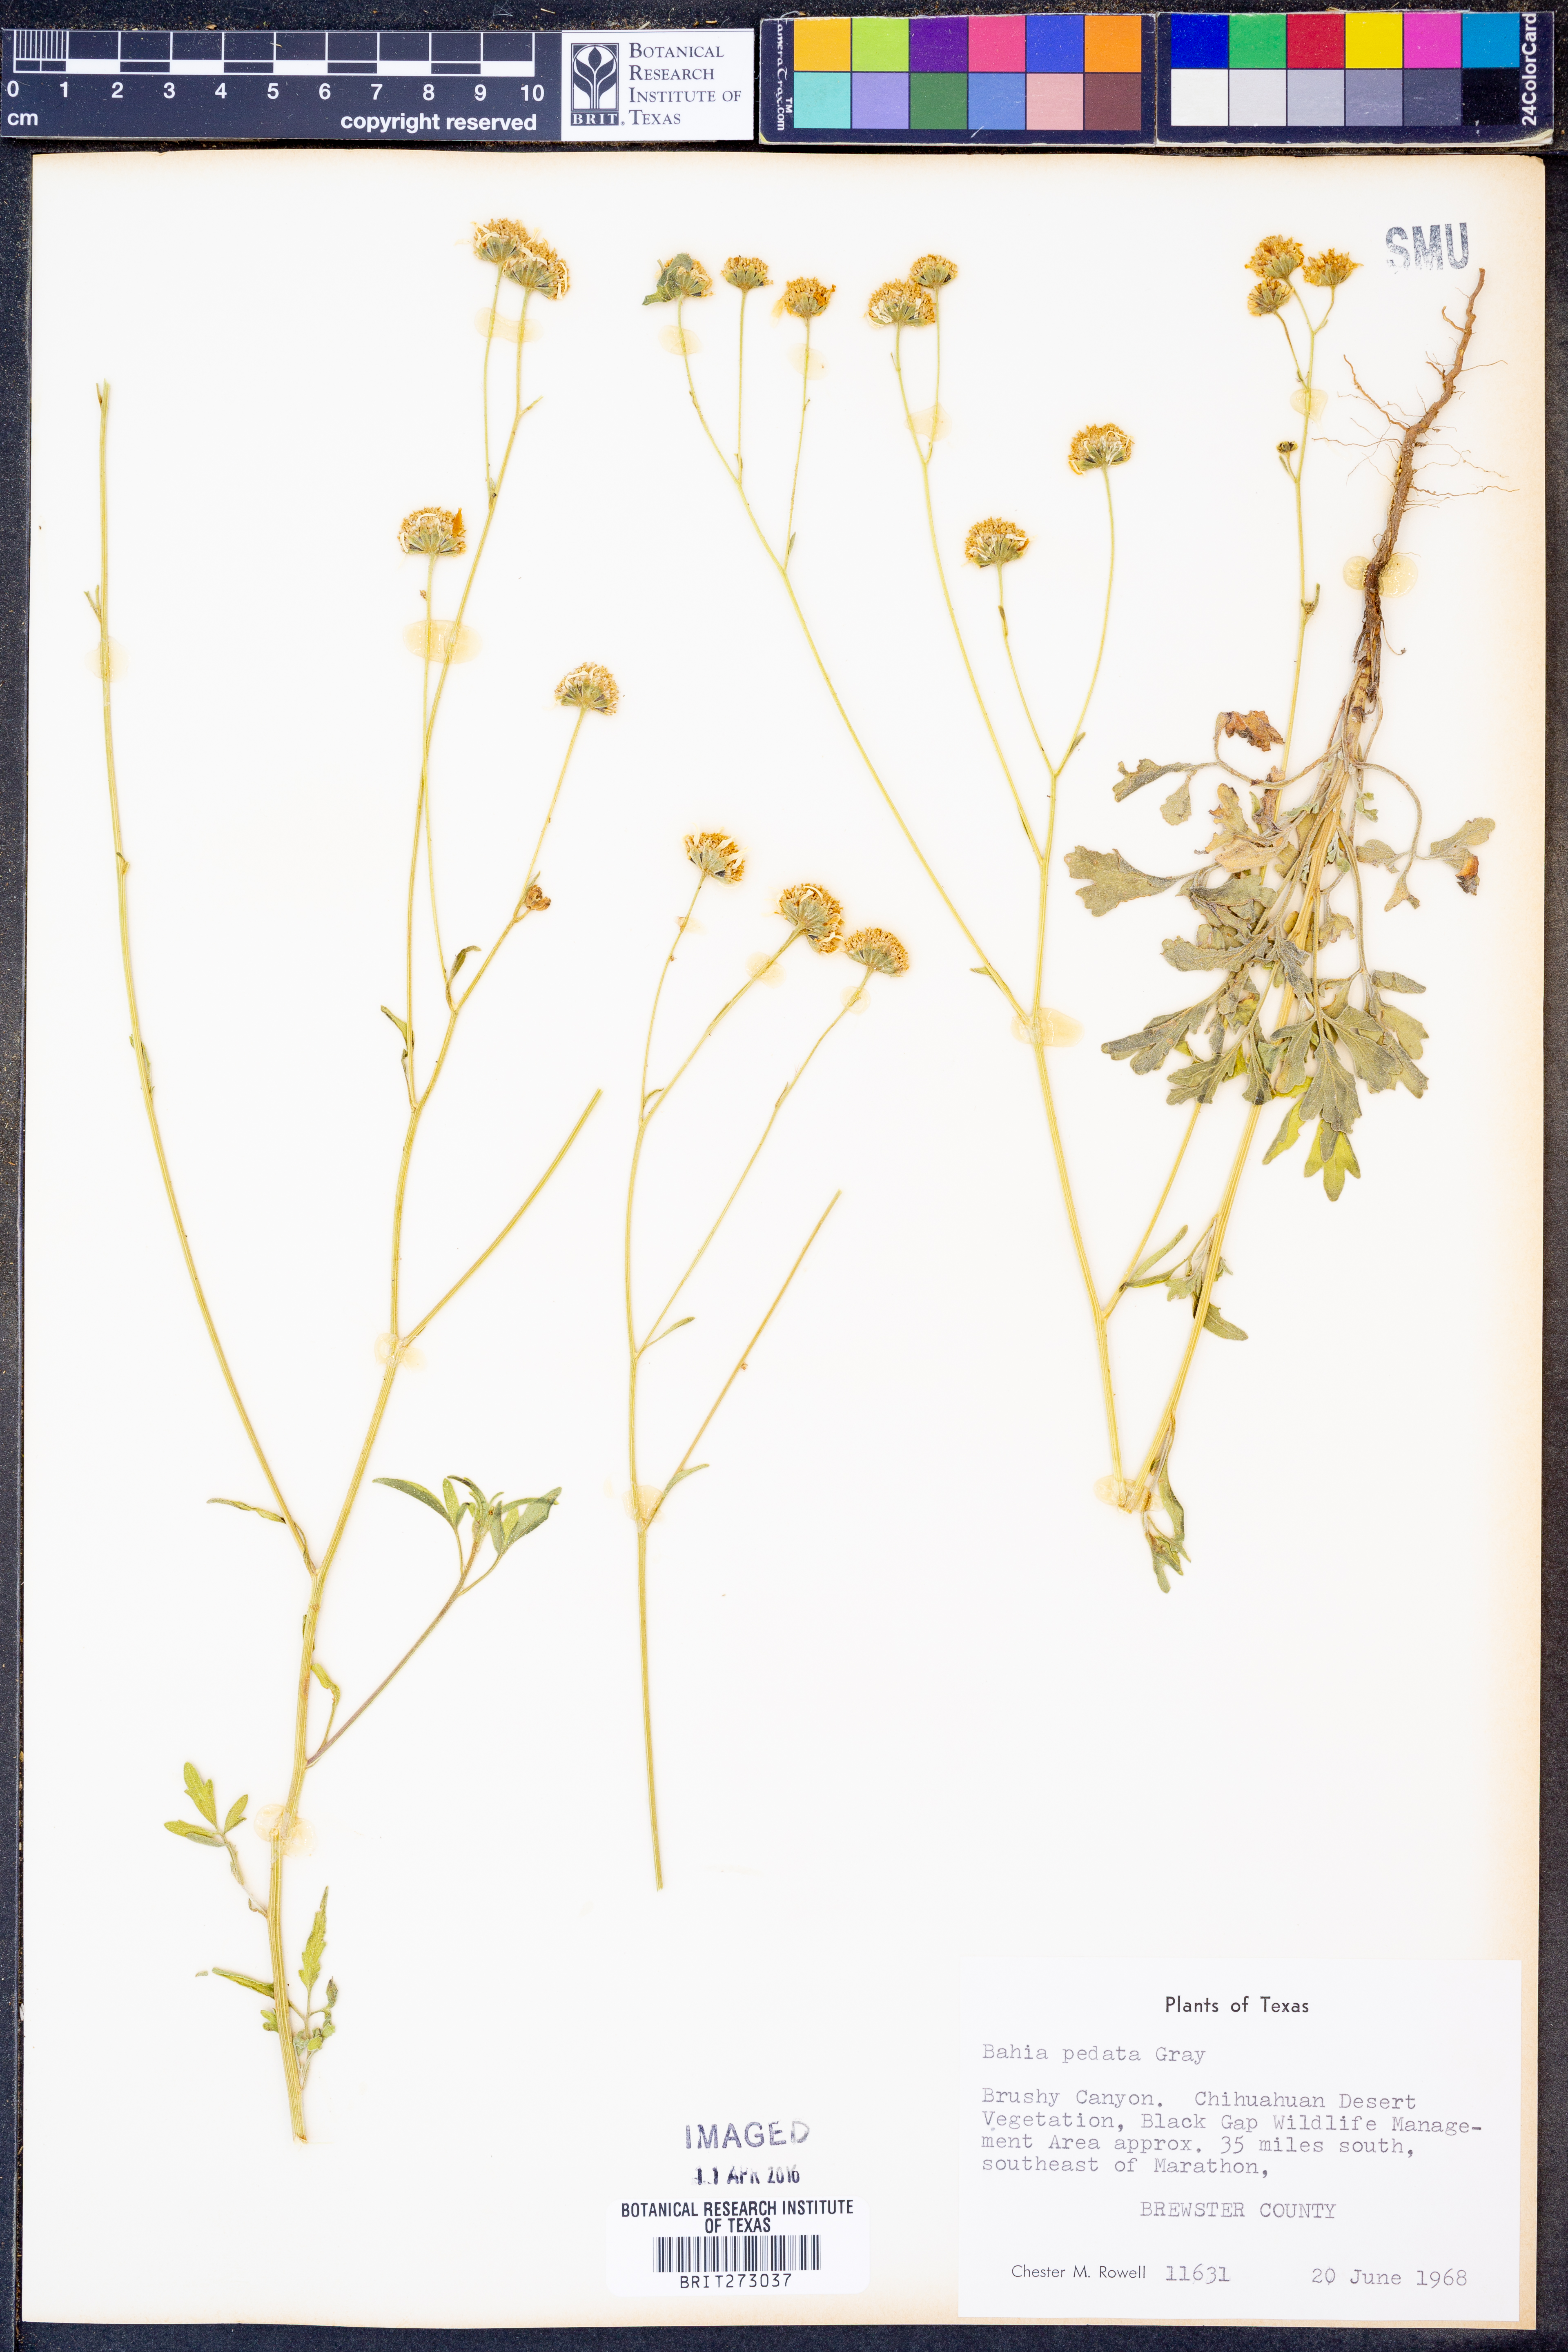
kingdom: Plantae
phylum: Tracheophyta
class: Magnoliopsida
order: Asterales
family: Asteraceae
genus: Hymenothrix
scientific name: Hymenothrix pedata
